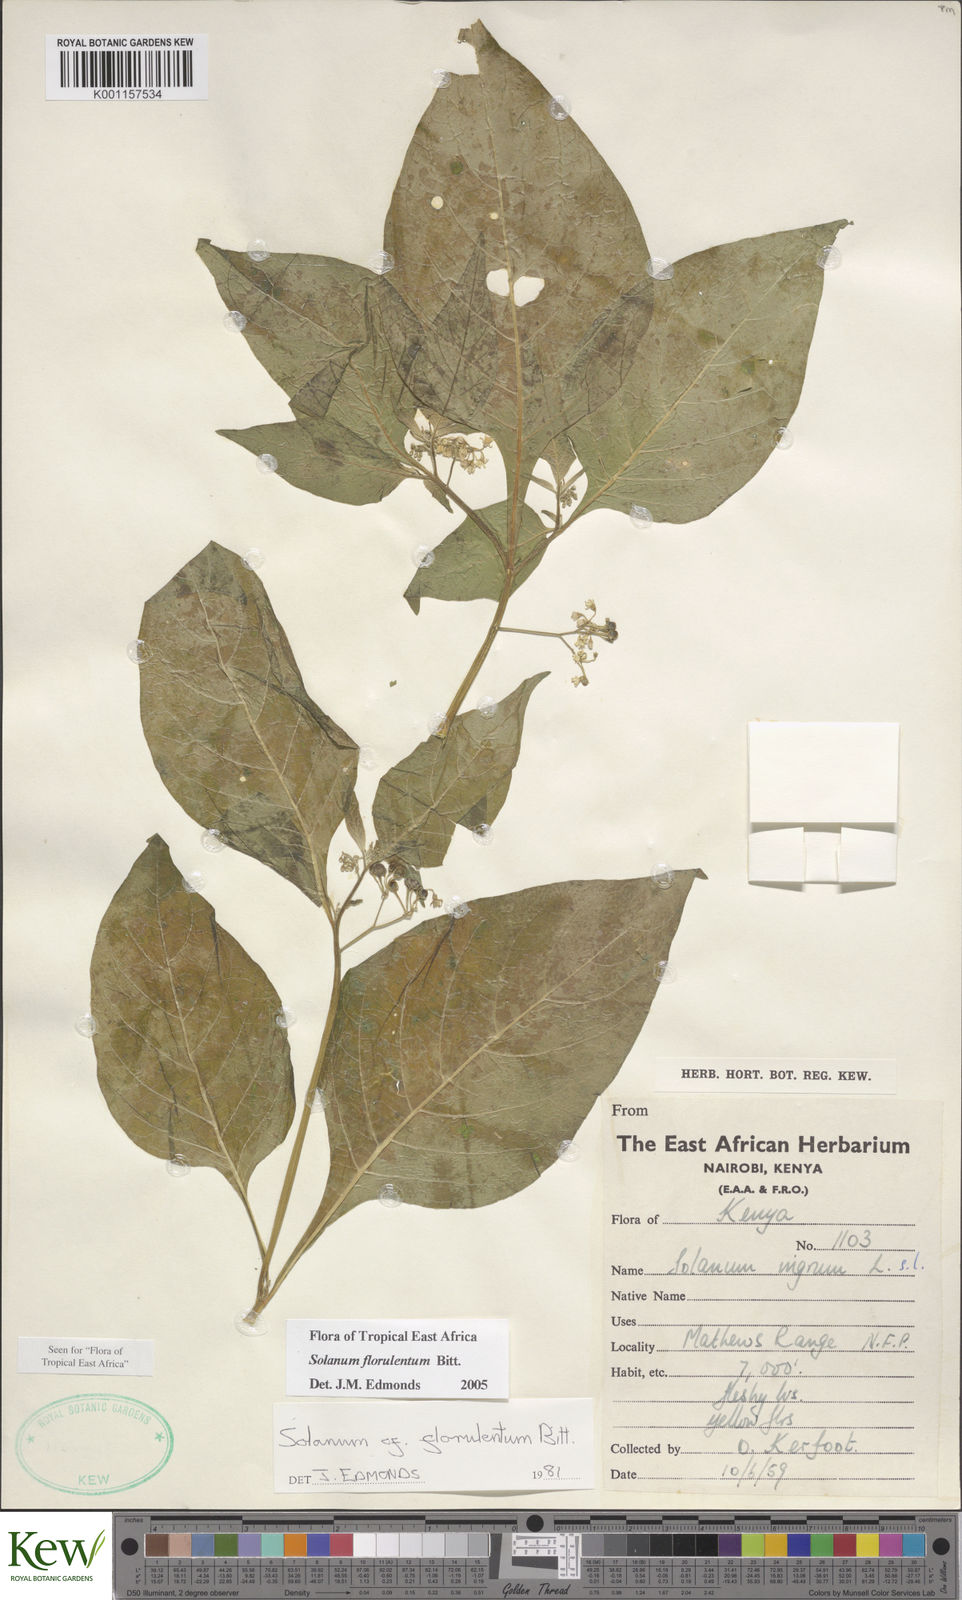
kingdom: Plantae
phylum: Tracheophyta
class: Magnoliopsida
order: Solanales
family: Solanaceae
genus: Solanum
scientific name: Solanum tarderemotum
